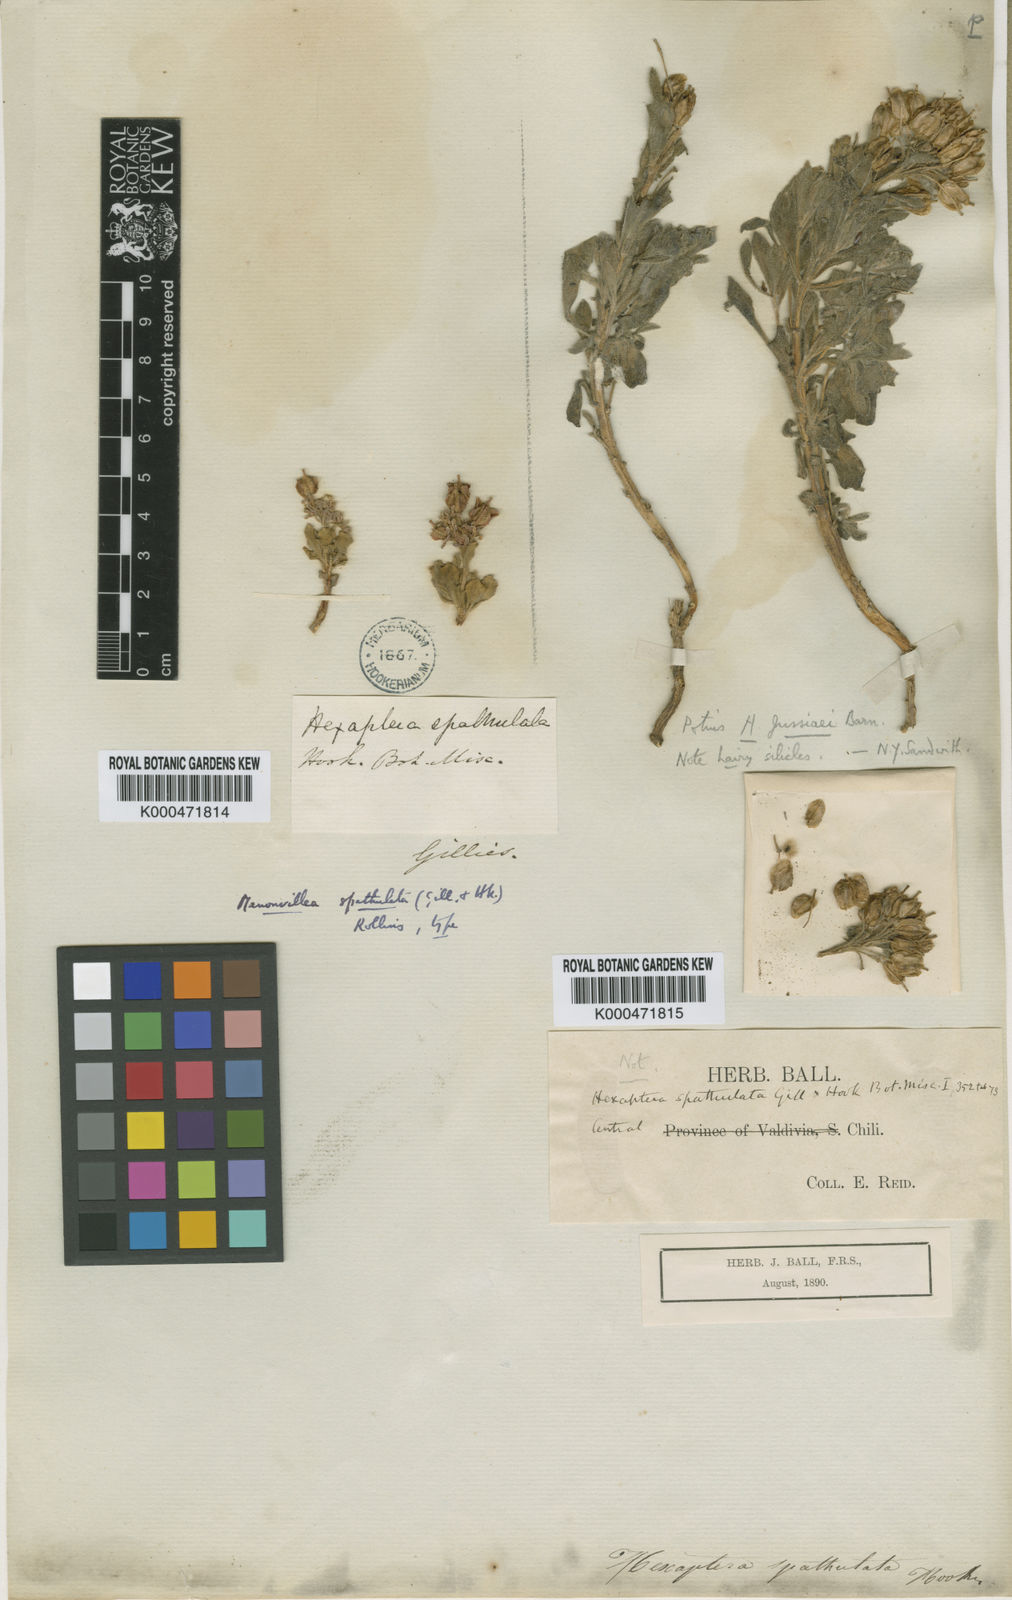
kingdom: Plantae
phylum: Tracheophyta
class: Magnoliopsida
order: Brassicales
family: Brassicaceae
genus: Menonvillea
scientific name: Menonvillea spathulata
